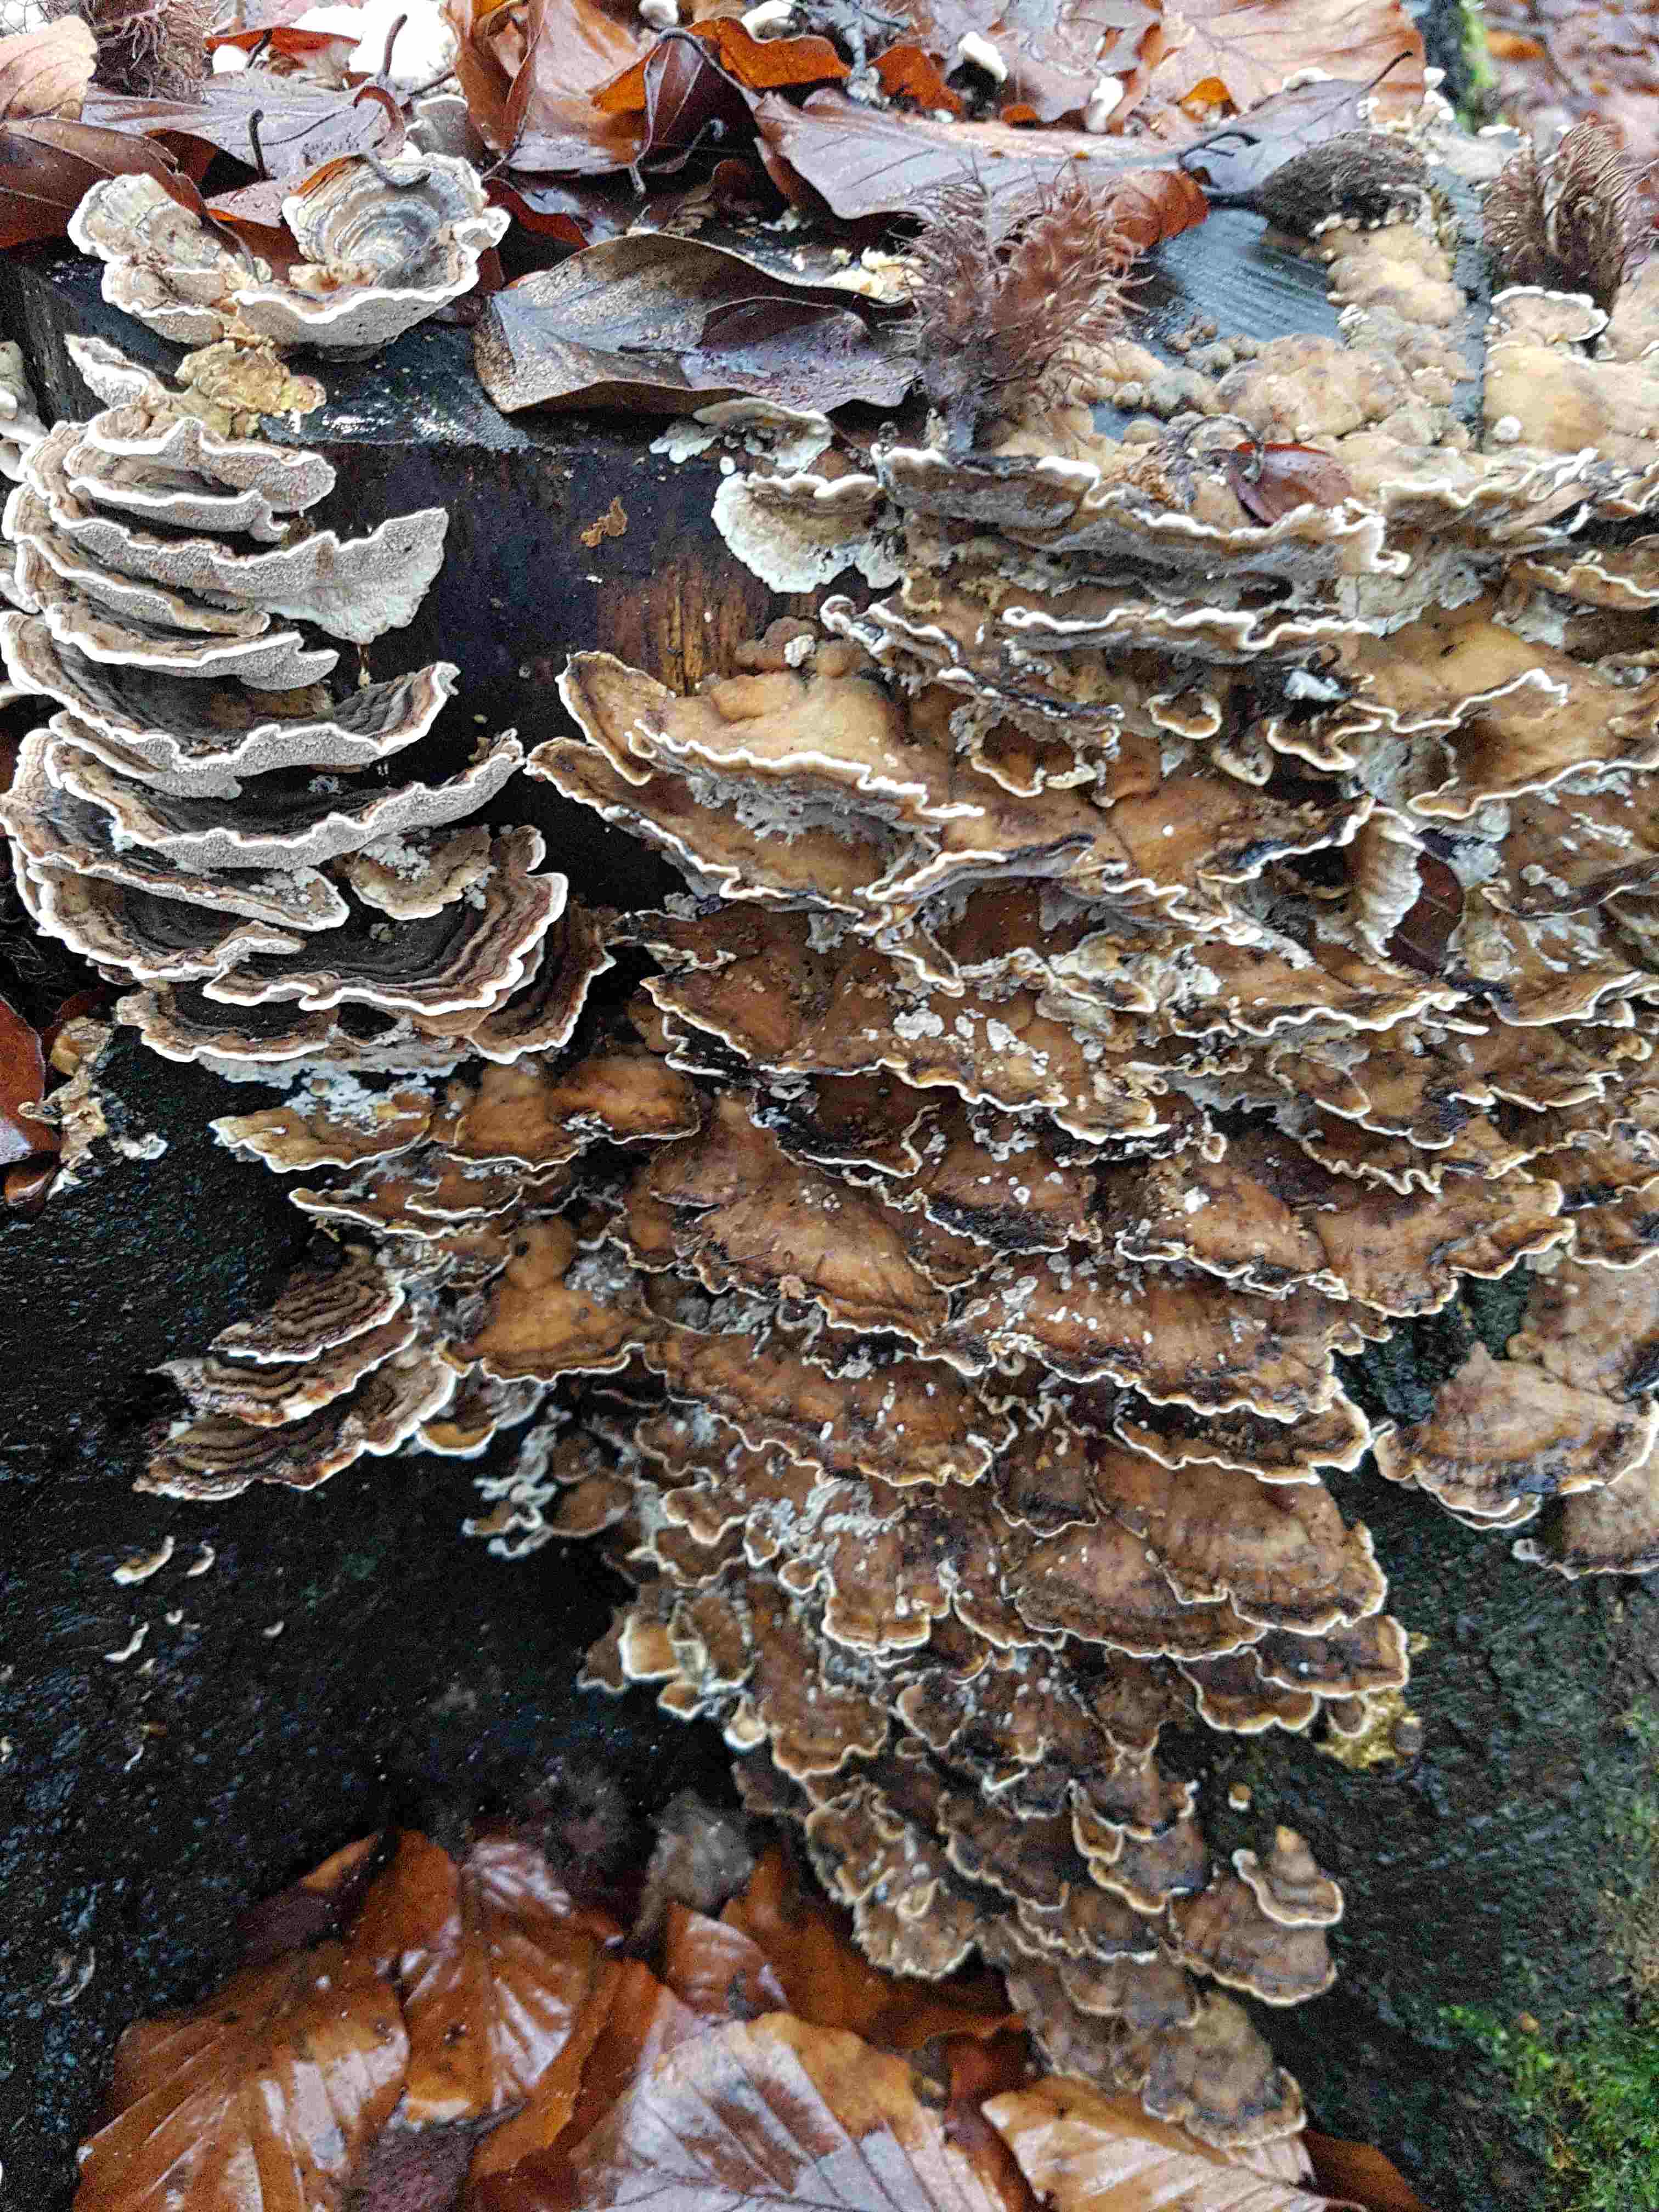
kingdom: Fungi
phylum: Basidiomycota
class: Agaricomycetes
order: Polyporales
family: Polyporaceae
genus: Trametes
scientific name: Trametes versicolor
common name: broget læderporesvamp
